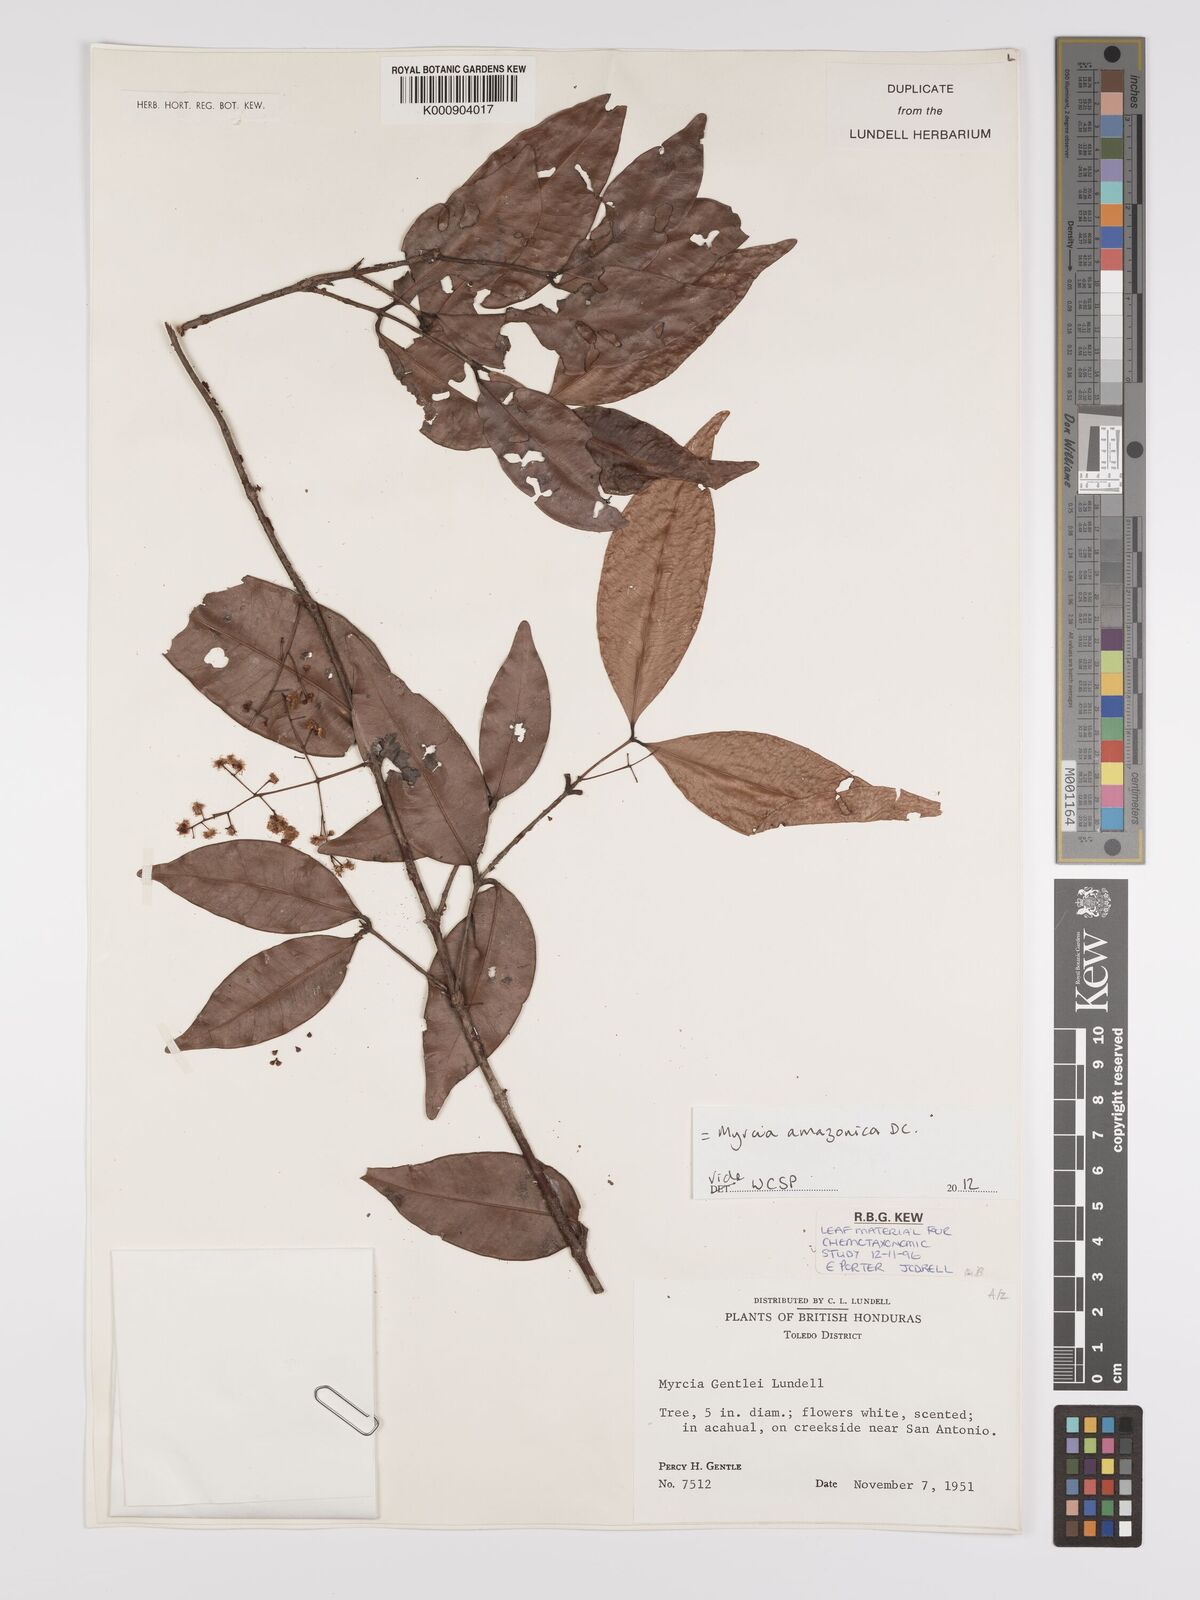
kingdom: Plantae
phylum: Tracheophyta
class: Magnoliopsida
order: Myrtales
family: Myrtaceae
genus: Myrcia
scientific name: Myrcia amazonica
